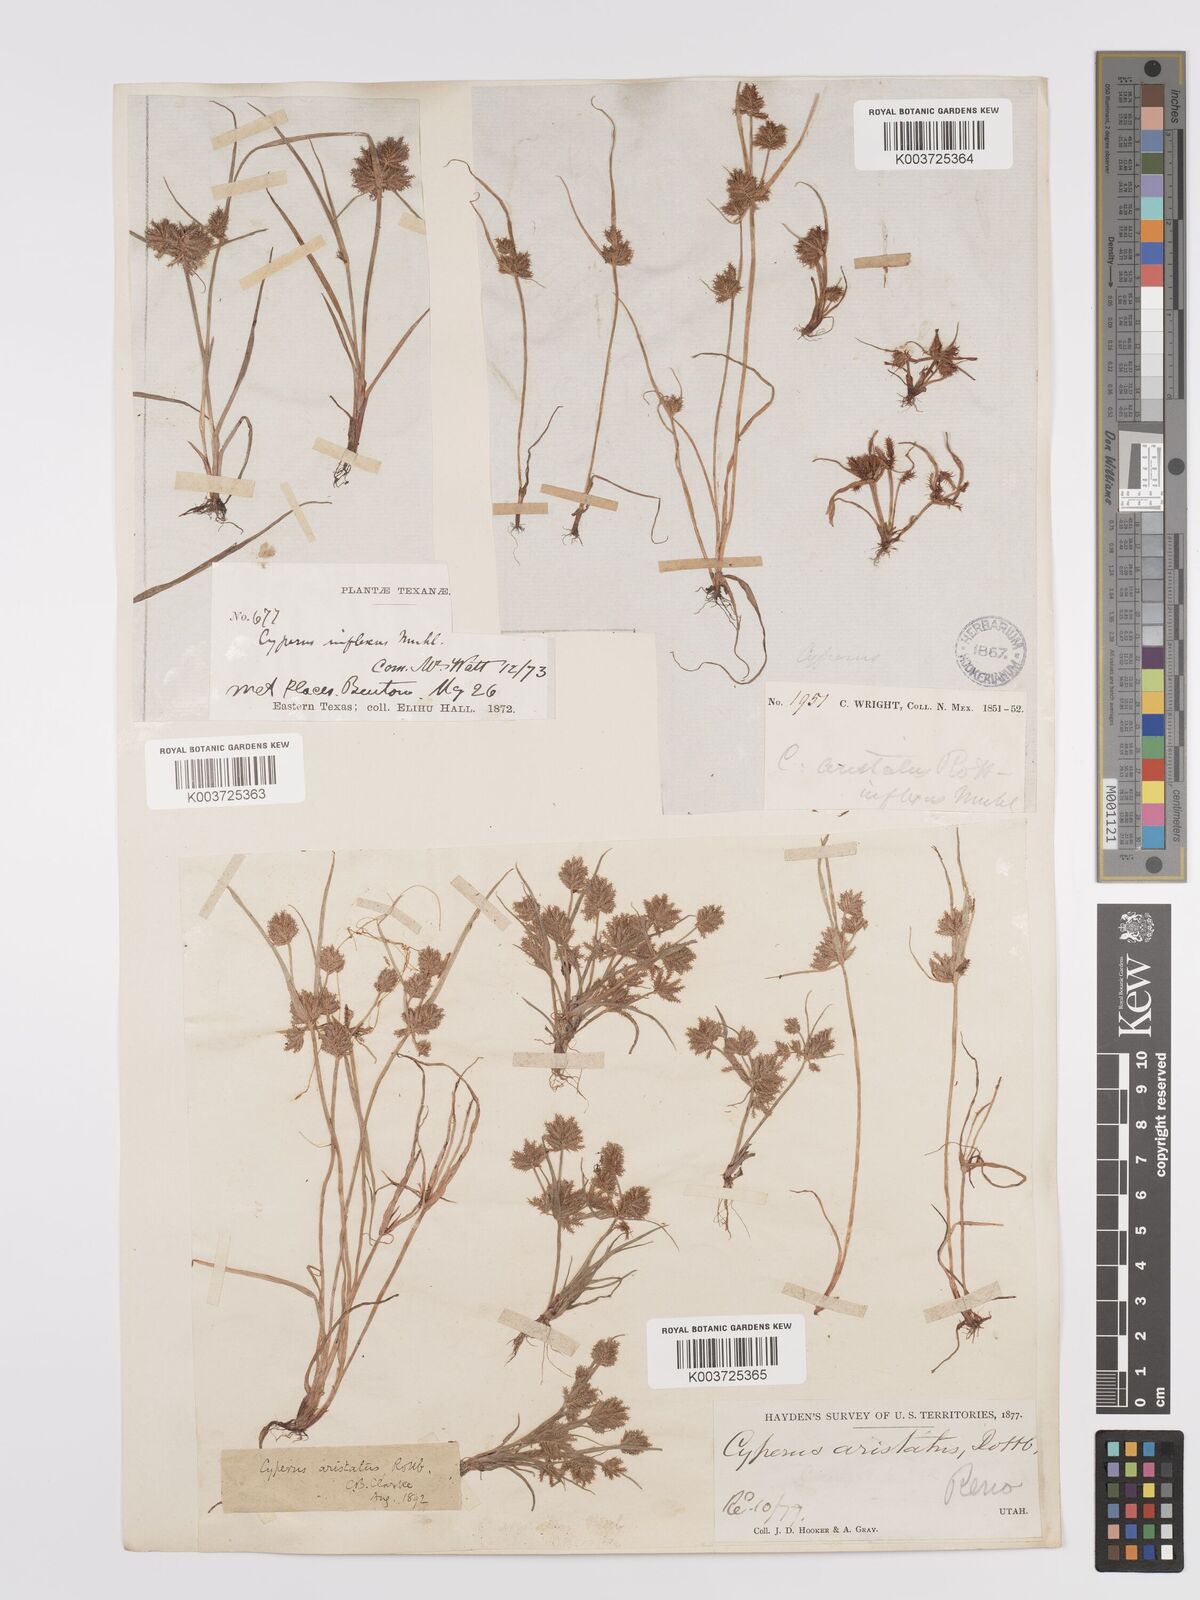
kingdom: Plantae
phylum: Tracheophyta
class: Liliopsida
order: Poales
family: Cyperaceae
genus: Cyperus
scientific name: Cyperus squarrosus
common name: Awned cyperus
